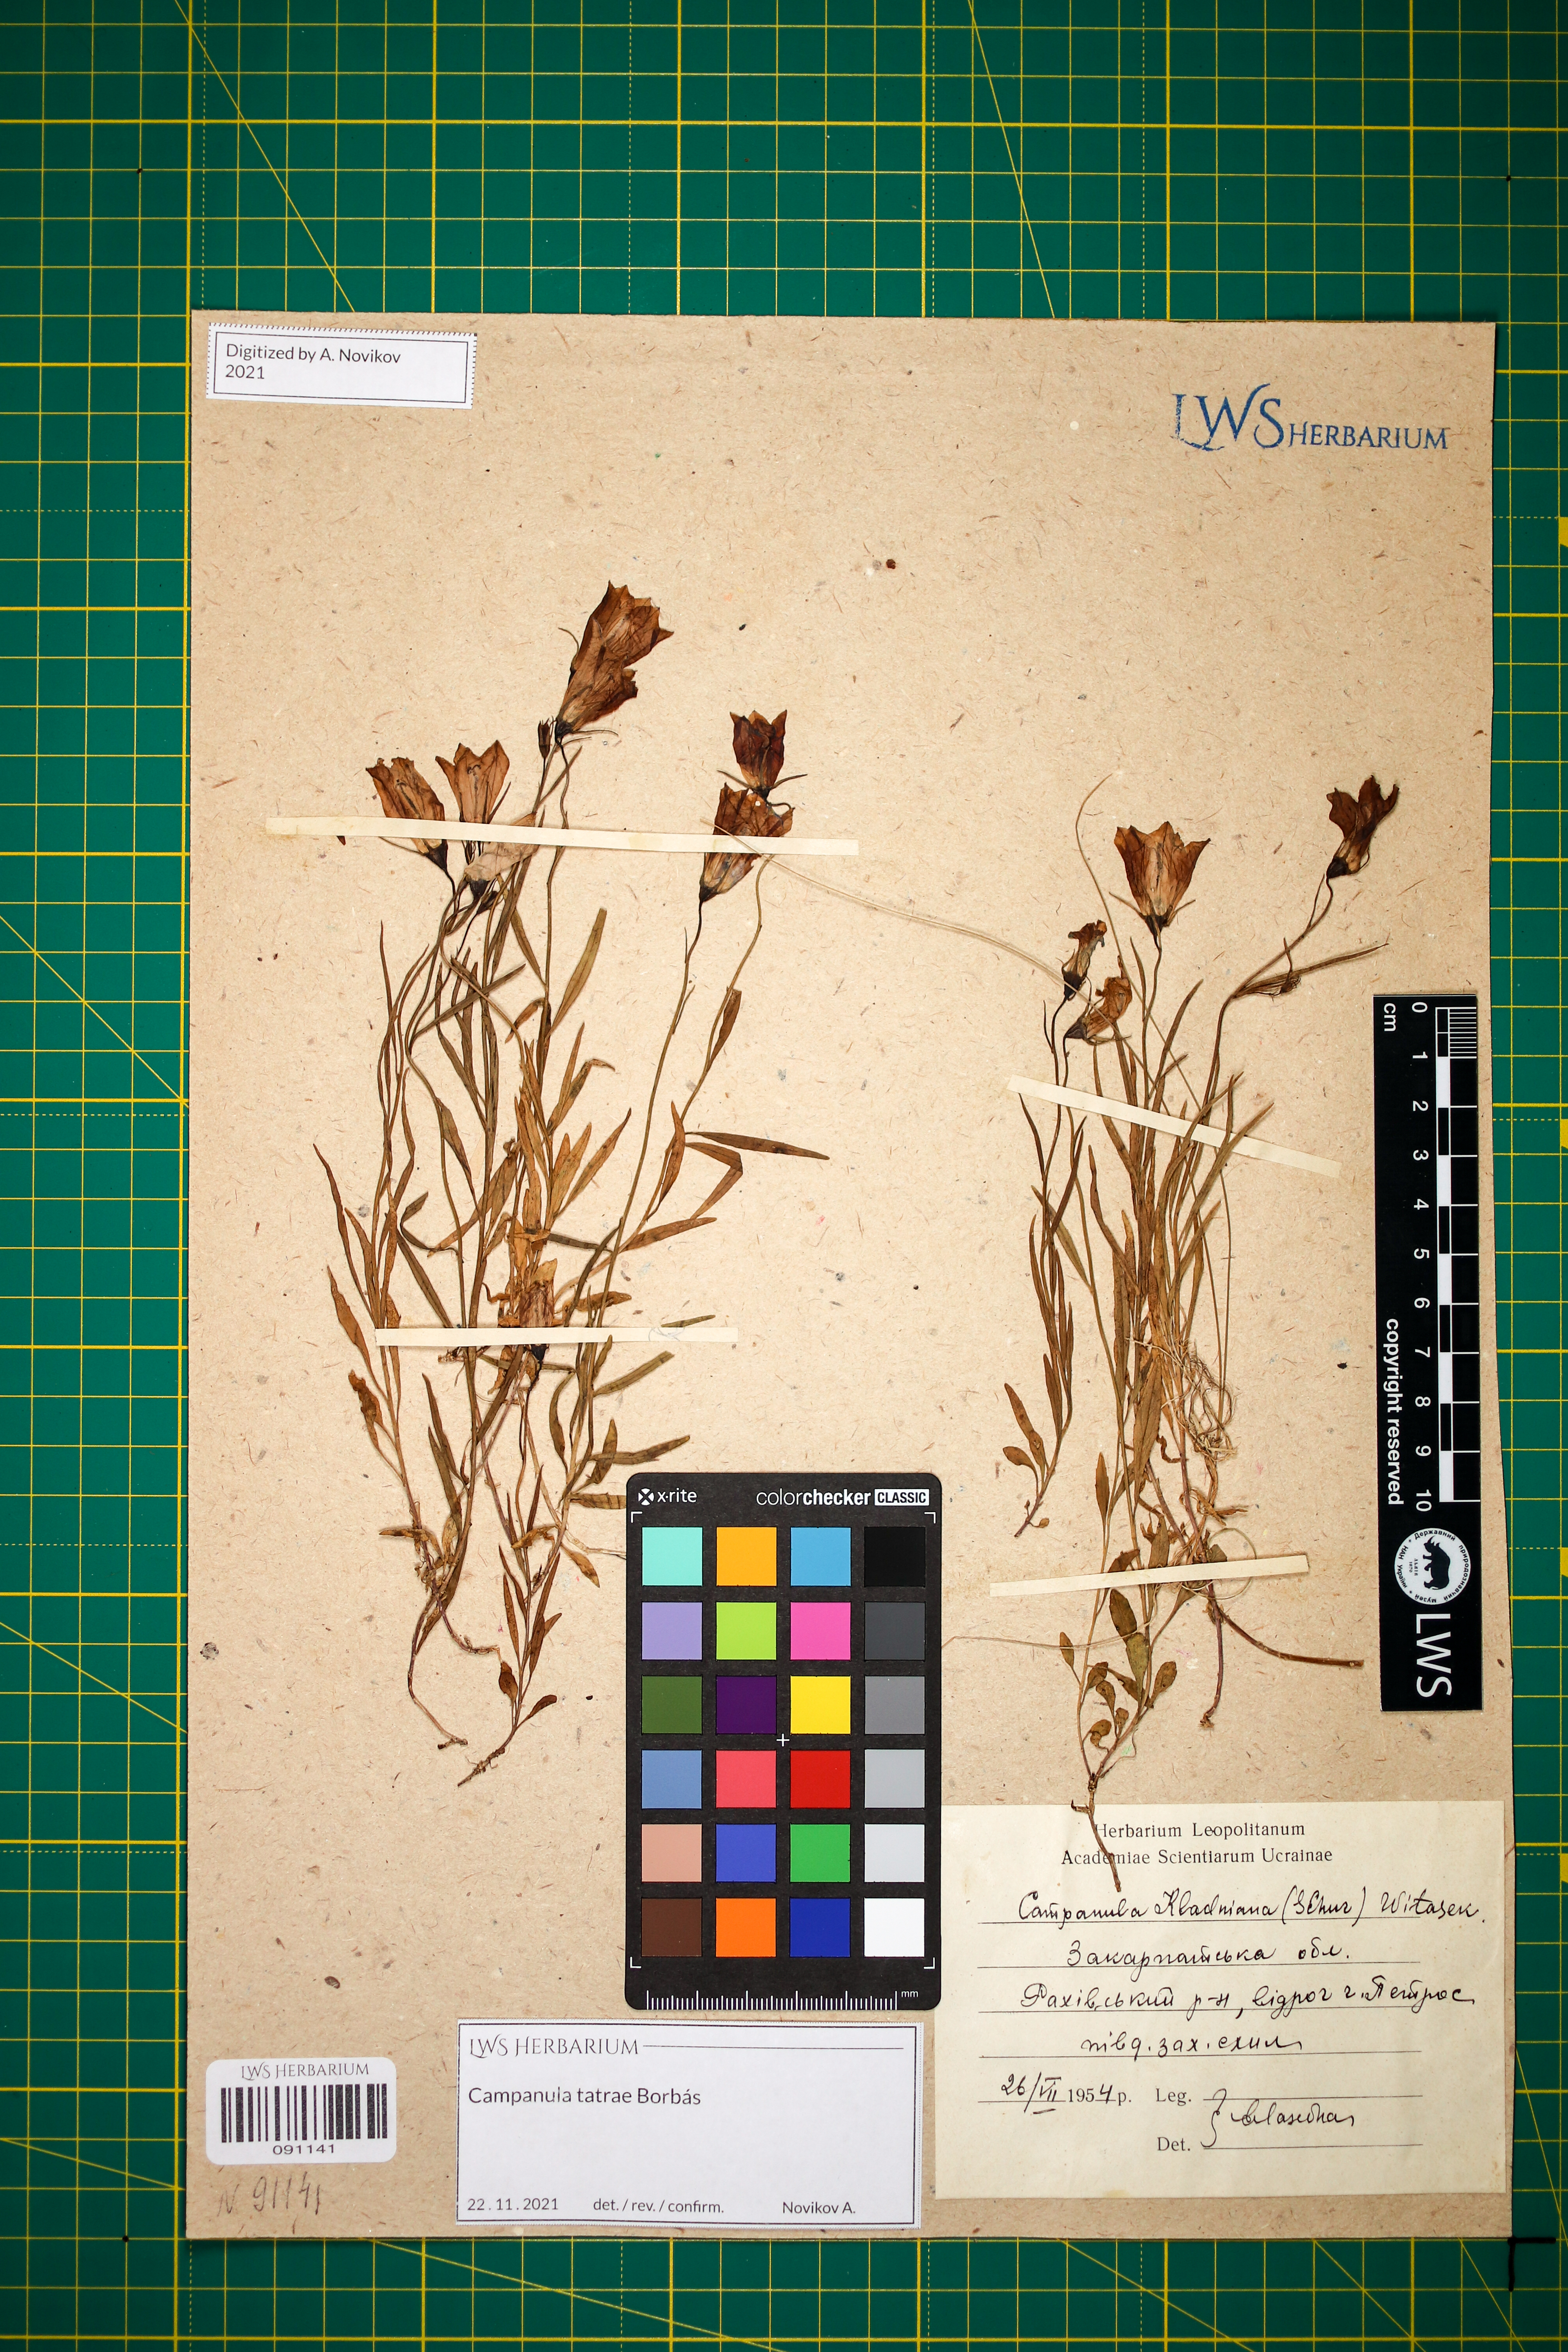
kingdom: Plantae
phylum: Tracheophyta
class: Magnoliopsida
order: Asterales
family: Campanulaceae
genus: Campanula
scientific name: Campanula kladniana
